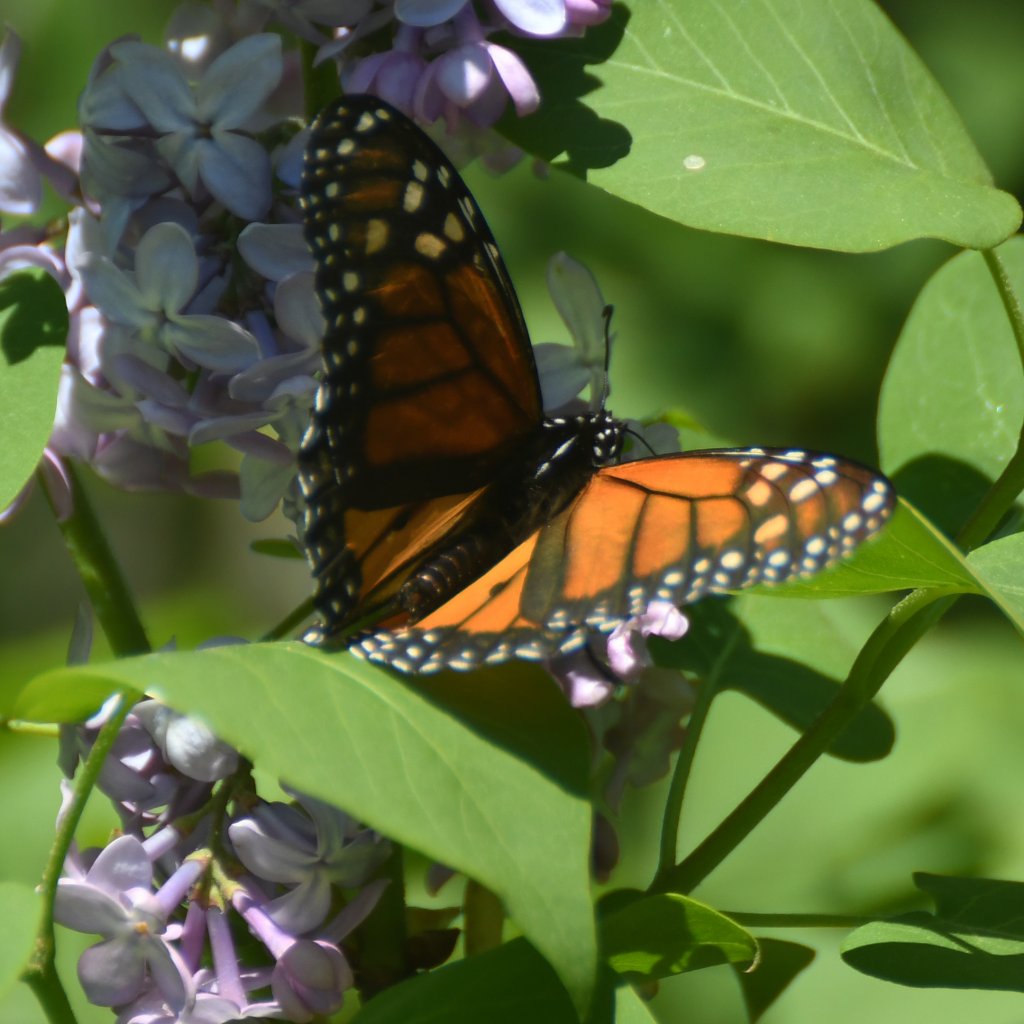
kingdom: Animalia
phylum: Arthropoda
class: Insecta
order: Lepidoptera
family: Nymphalidae
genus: Danaus
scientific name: Danaus plexippus
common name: Monarch
